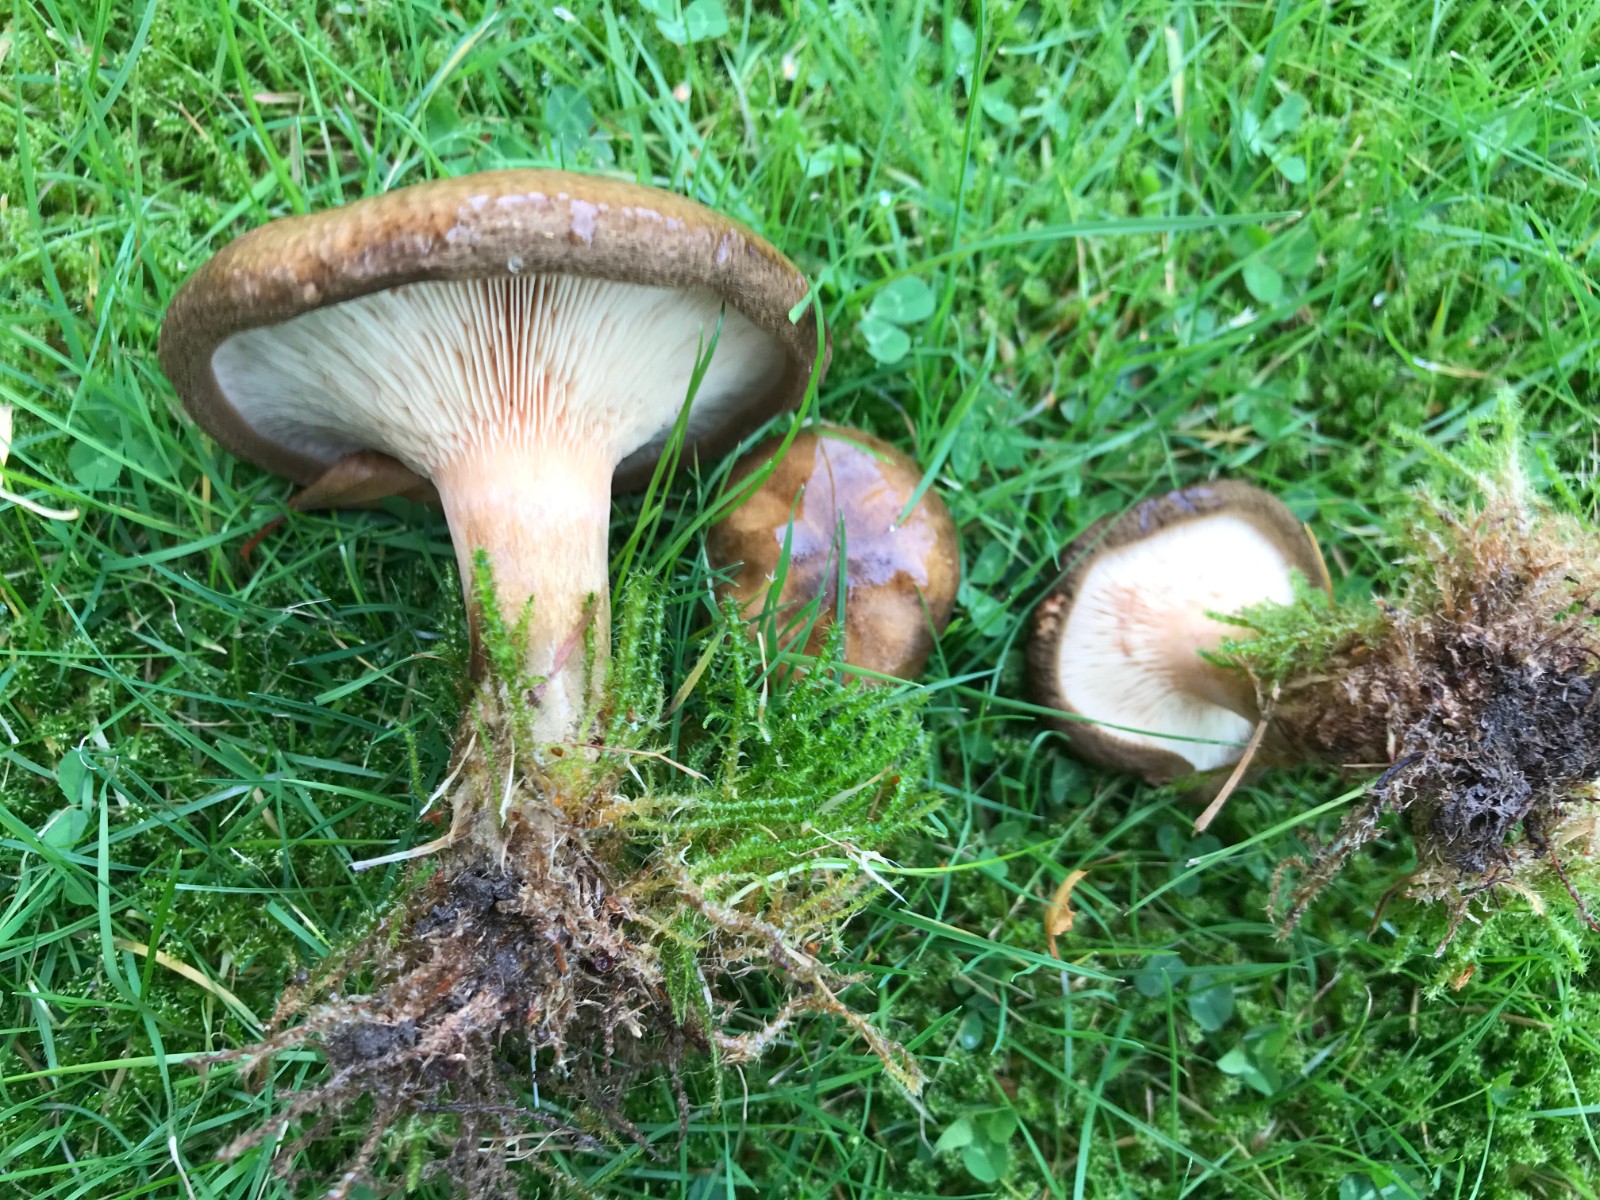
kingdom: Fungi
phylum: Basidiomycota
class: Agaricomycetes
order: Boletales
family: Paxillaceae
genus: Paxillus
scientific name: Paxillus obscurisporus
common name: mahognisporet netbladhat
